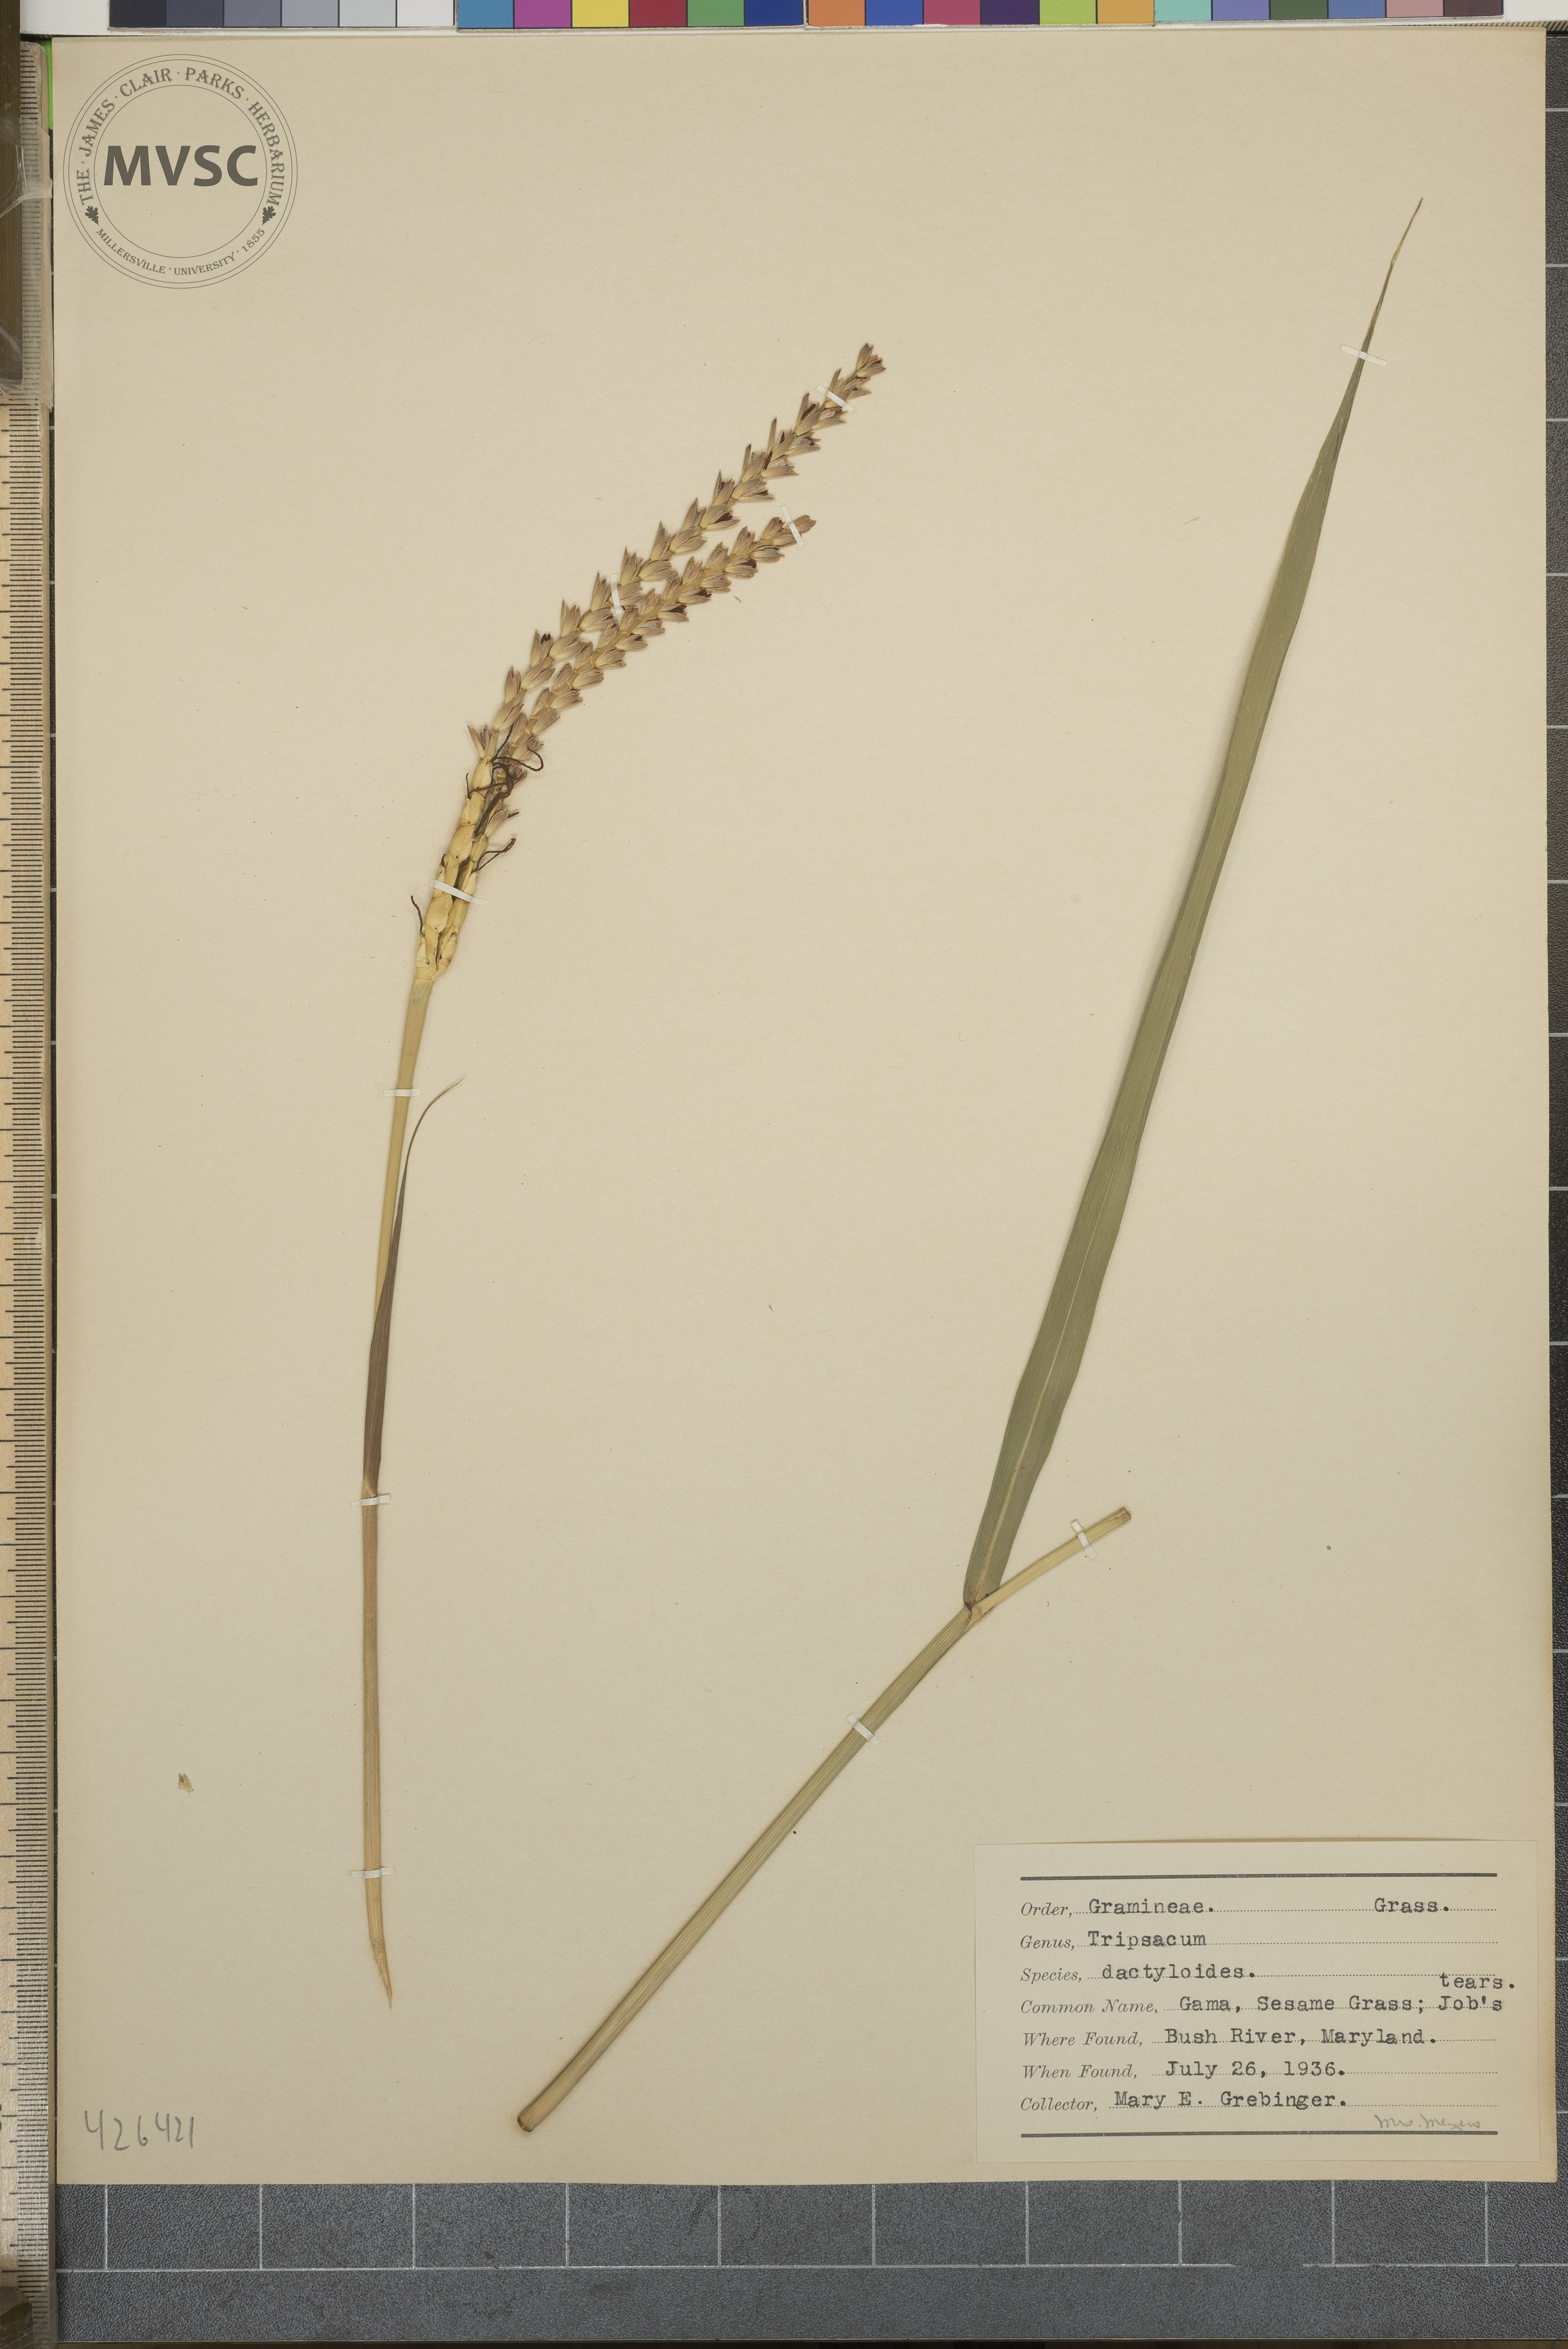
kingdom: Plantae
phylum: Tracheophyta
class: Liliopsida
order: Poales
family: Poaceae
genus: Tripsacum
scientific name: Tripsacum dactyloides
